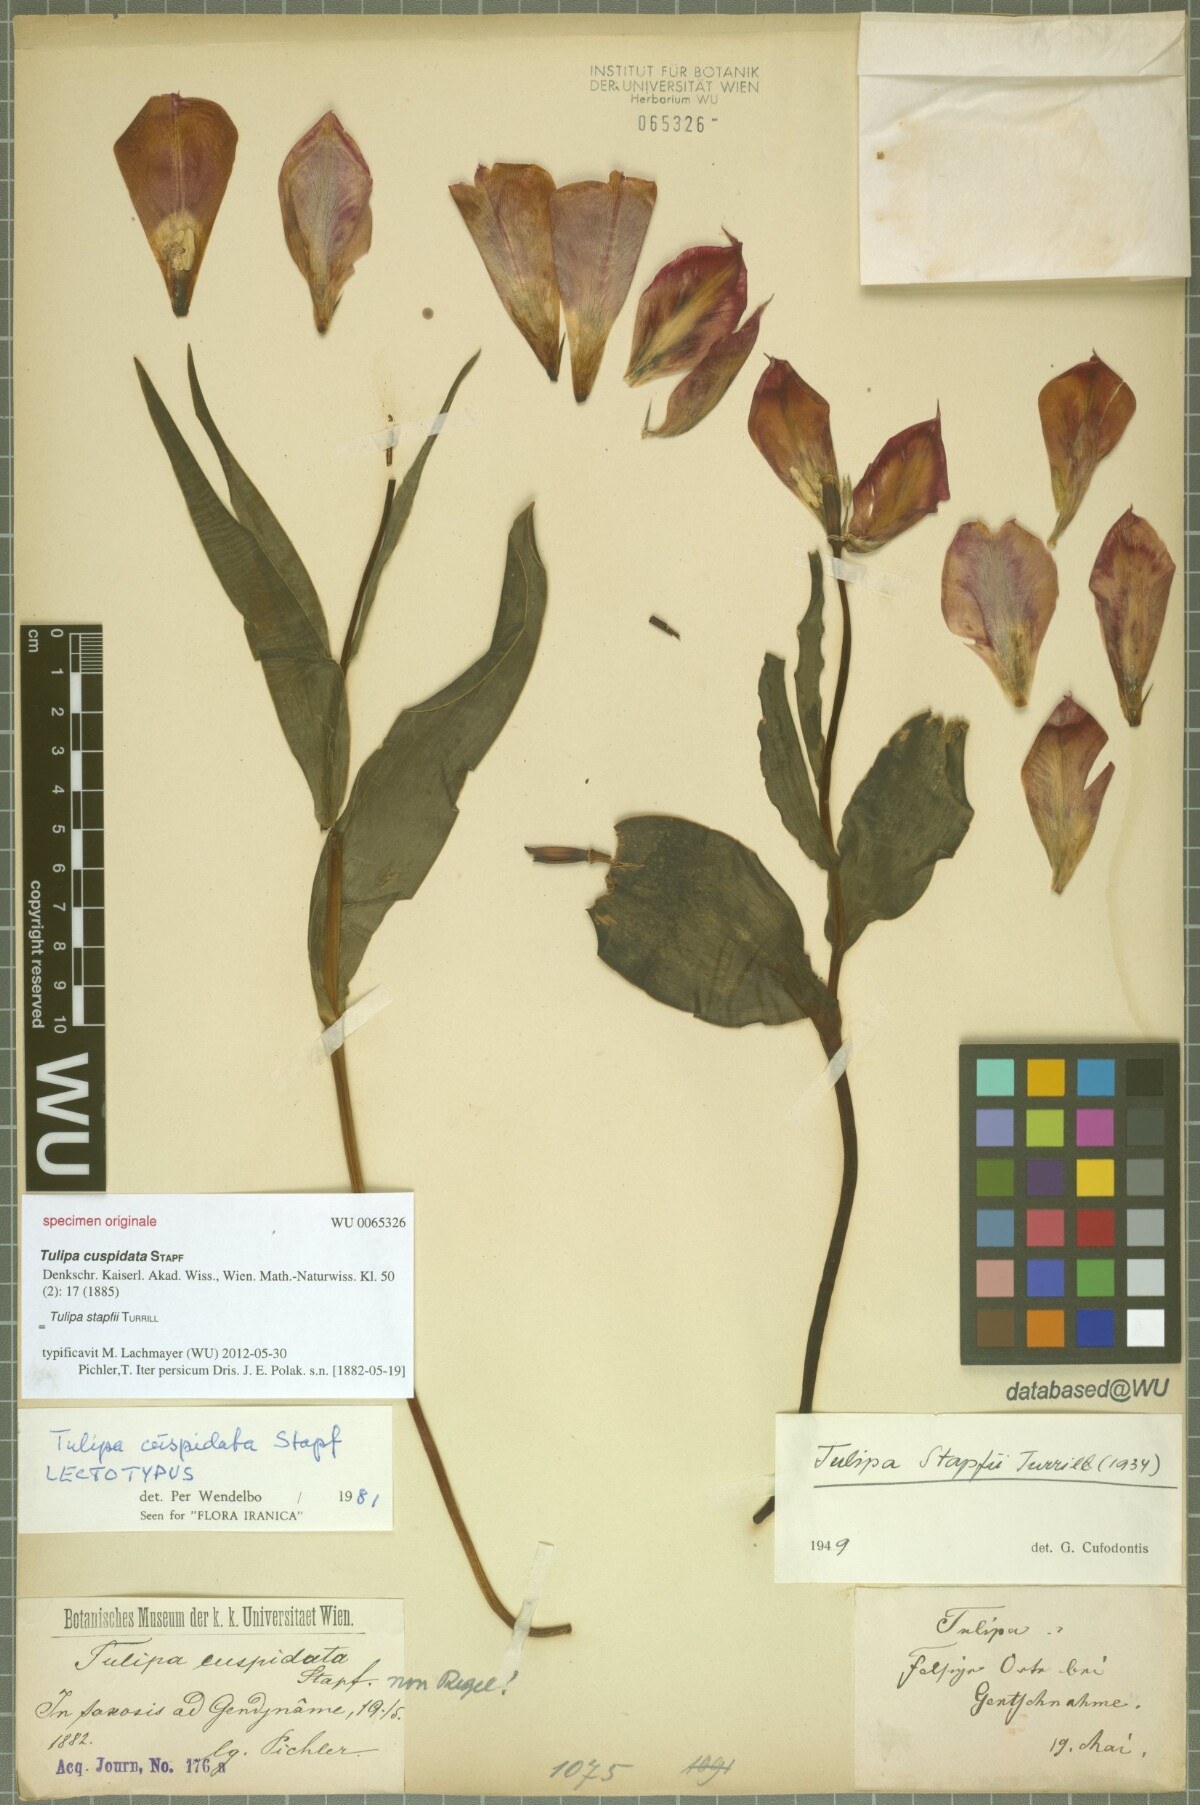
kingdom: Plantae
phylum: Tracheophyta
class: Liliopsida
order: Liliales
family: Liliaceae
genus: Tulipa
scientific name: Tulipa systola
